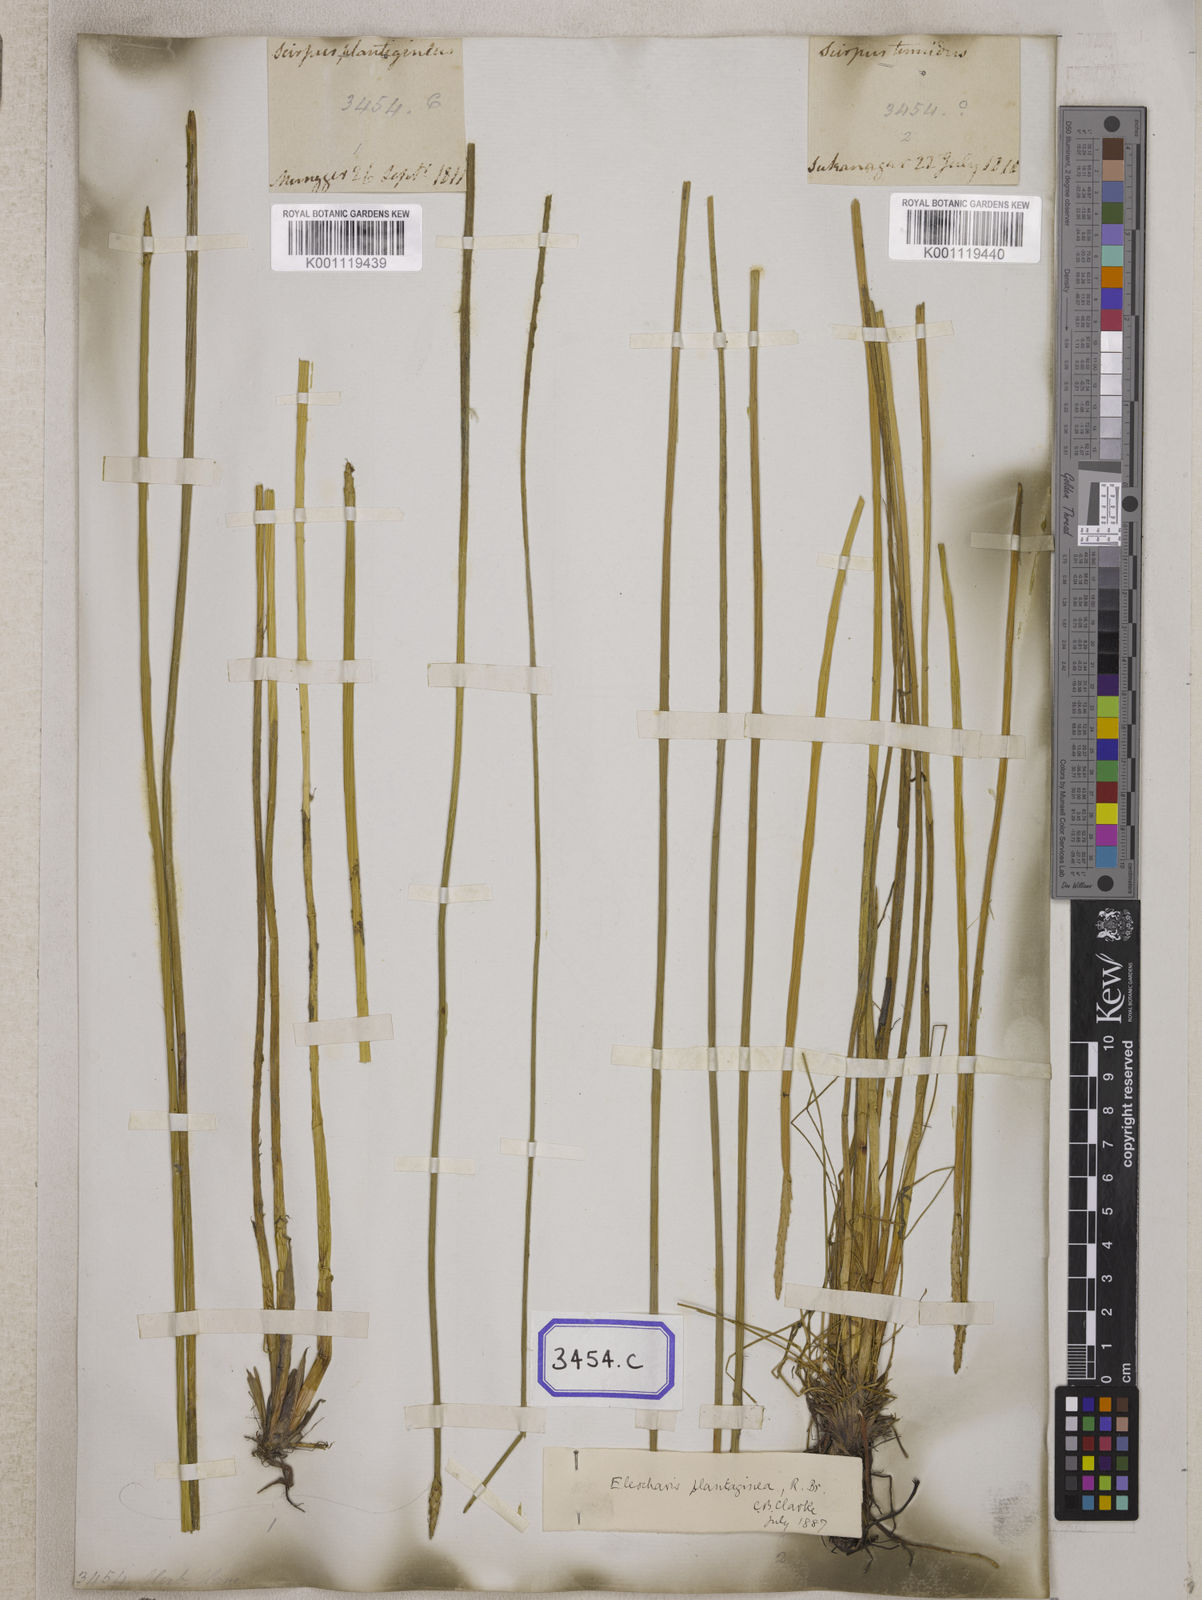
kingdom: Plantae
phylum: Tracheophyta
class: Liliopsida
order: Poales
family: Cyperaceae
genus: Eleocharis
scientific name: Eleocharis
